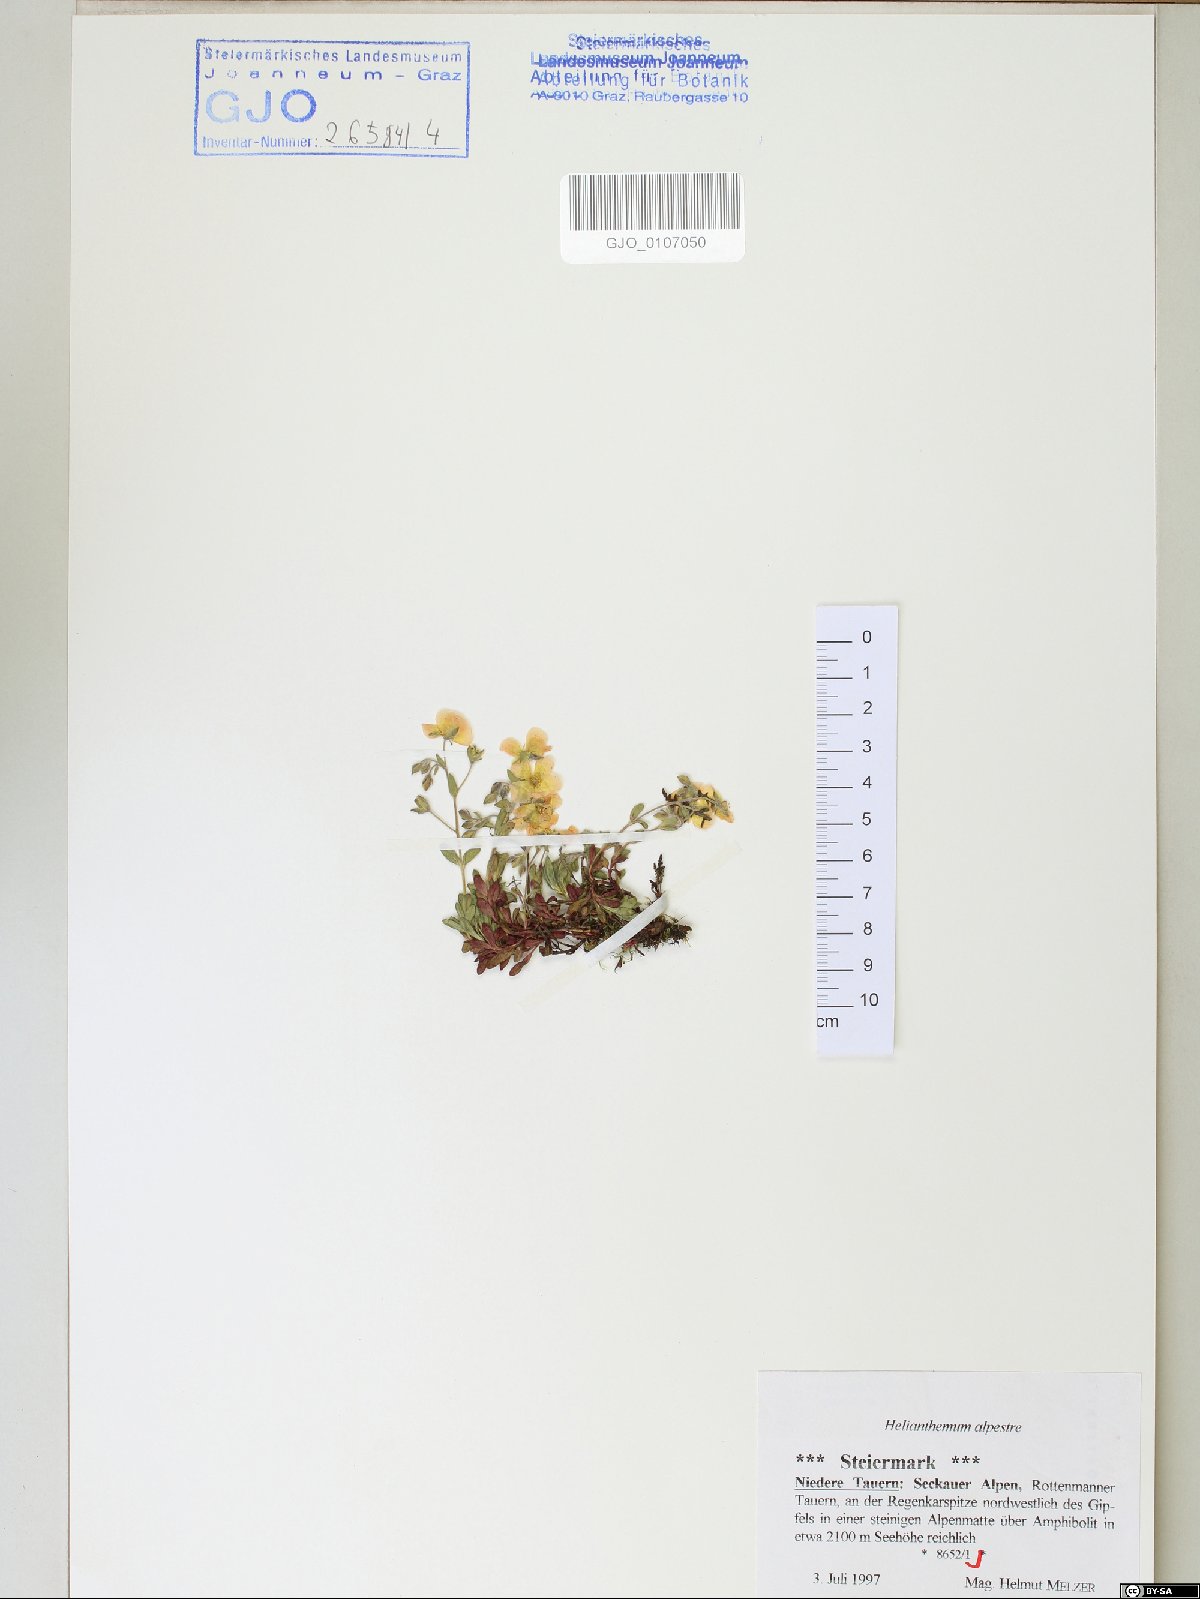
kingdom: Plantae
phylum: Tracheophyta
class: Magnoliopsida
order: Malvales
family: Cistaceae
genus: Helianthemum
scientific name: Helianthemum alpestre
